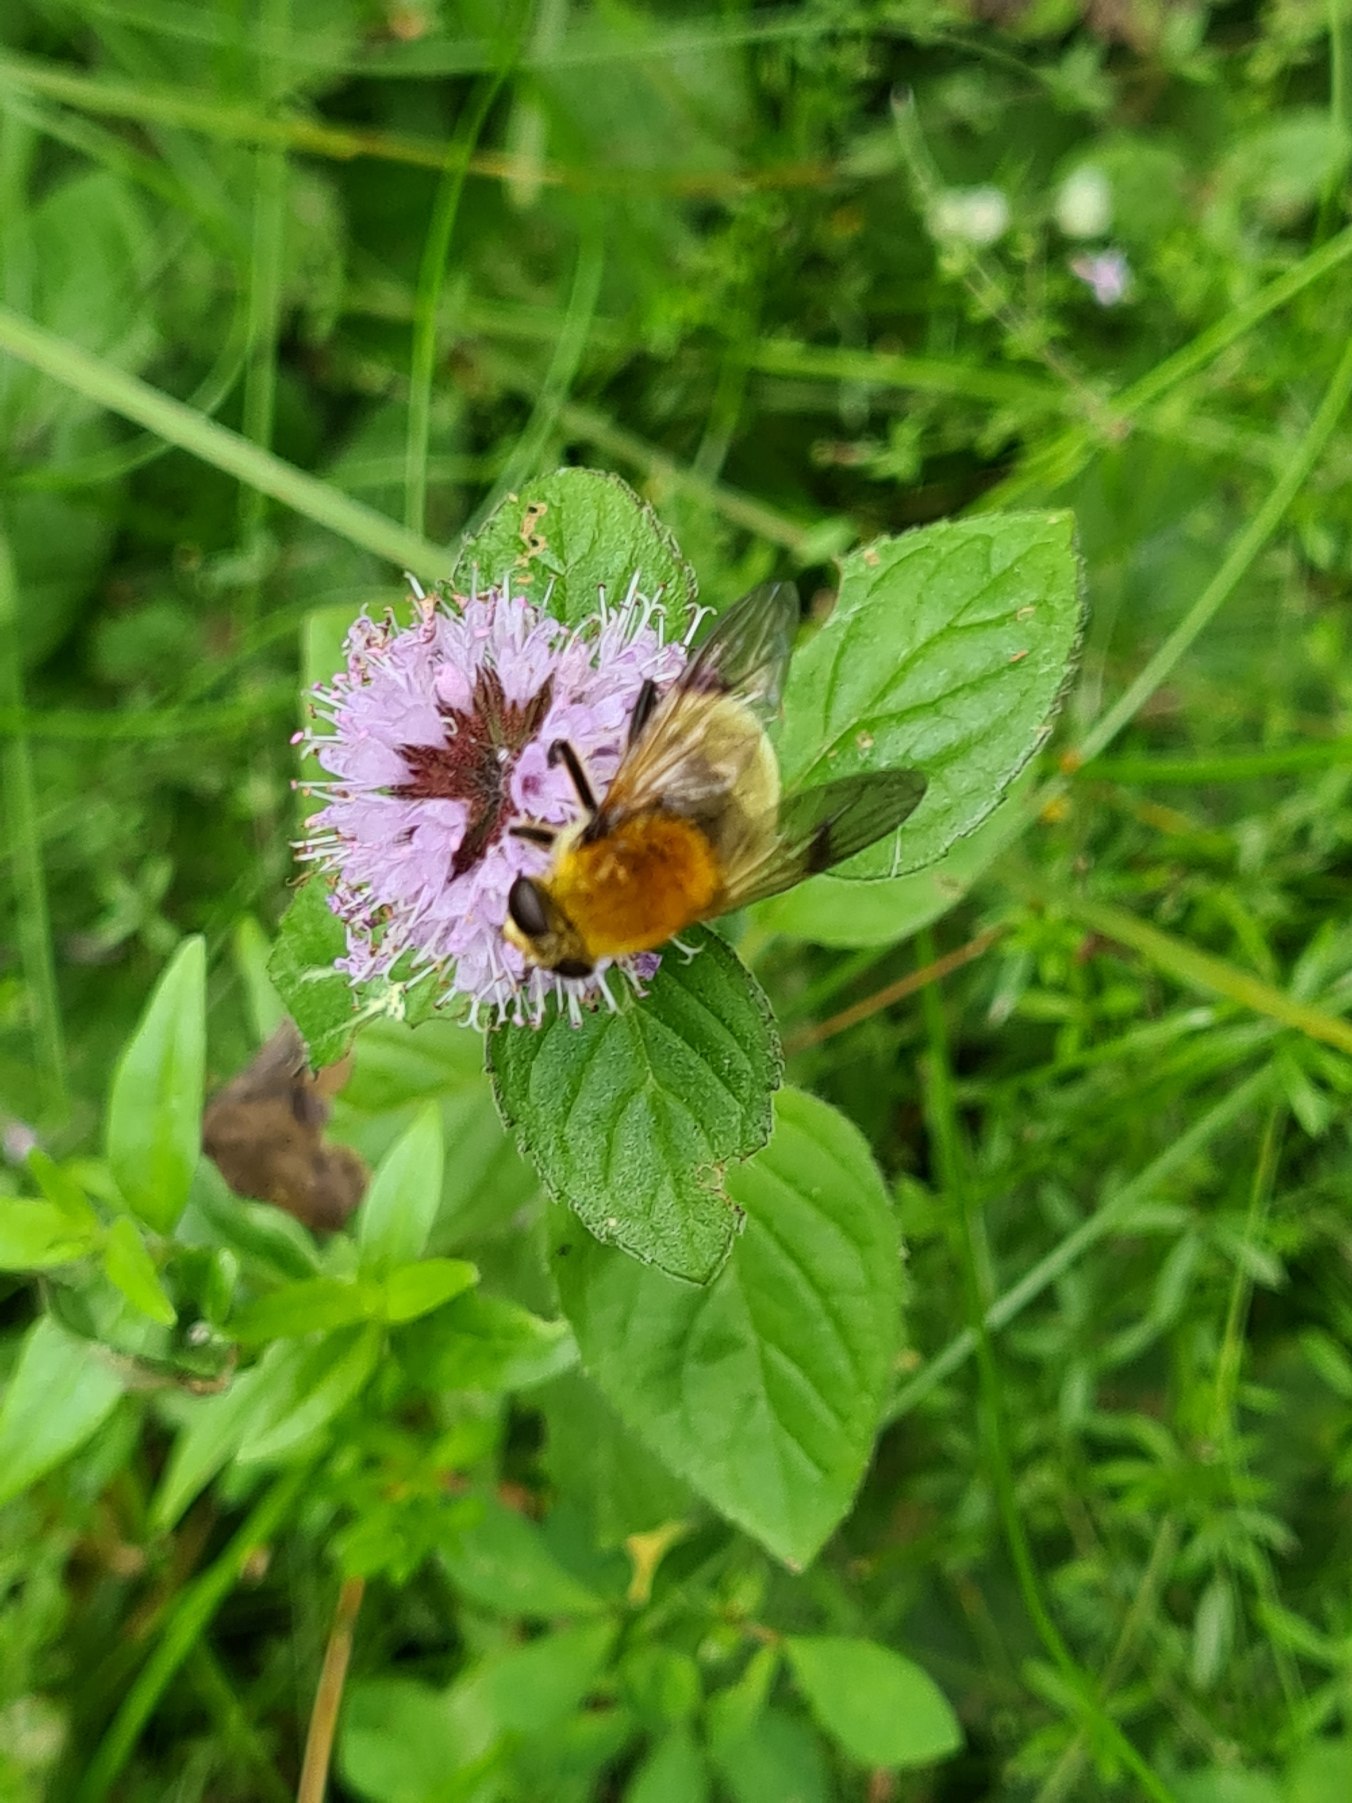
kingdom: Animalia
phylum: Arthropoda
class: Insecta
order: Diptera
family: Syrphidae
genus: Sericomyia
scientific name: Sericomyia superbiens
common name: Brun bjørnesvirreflue
